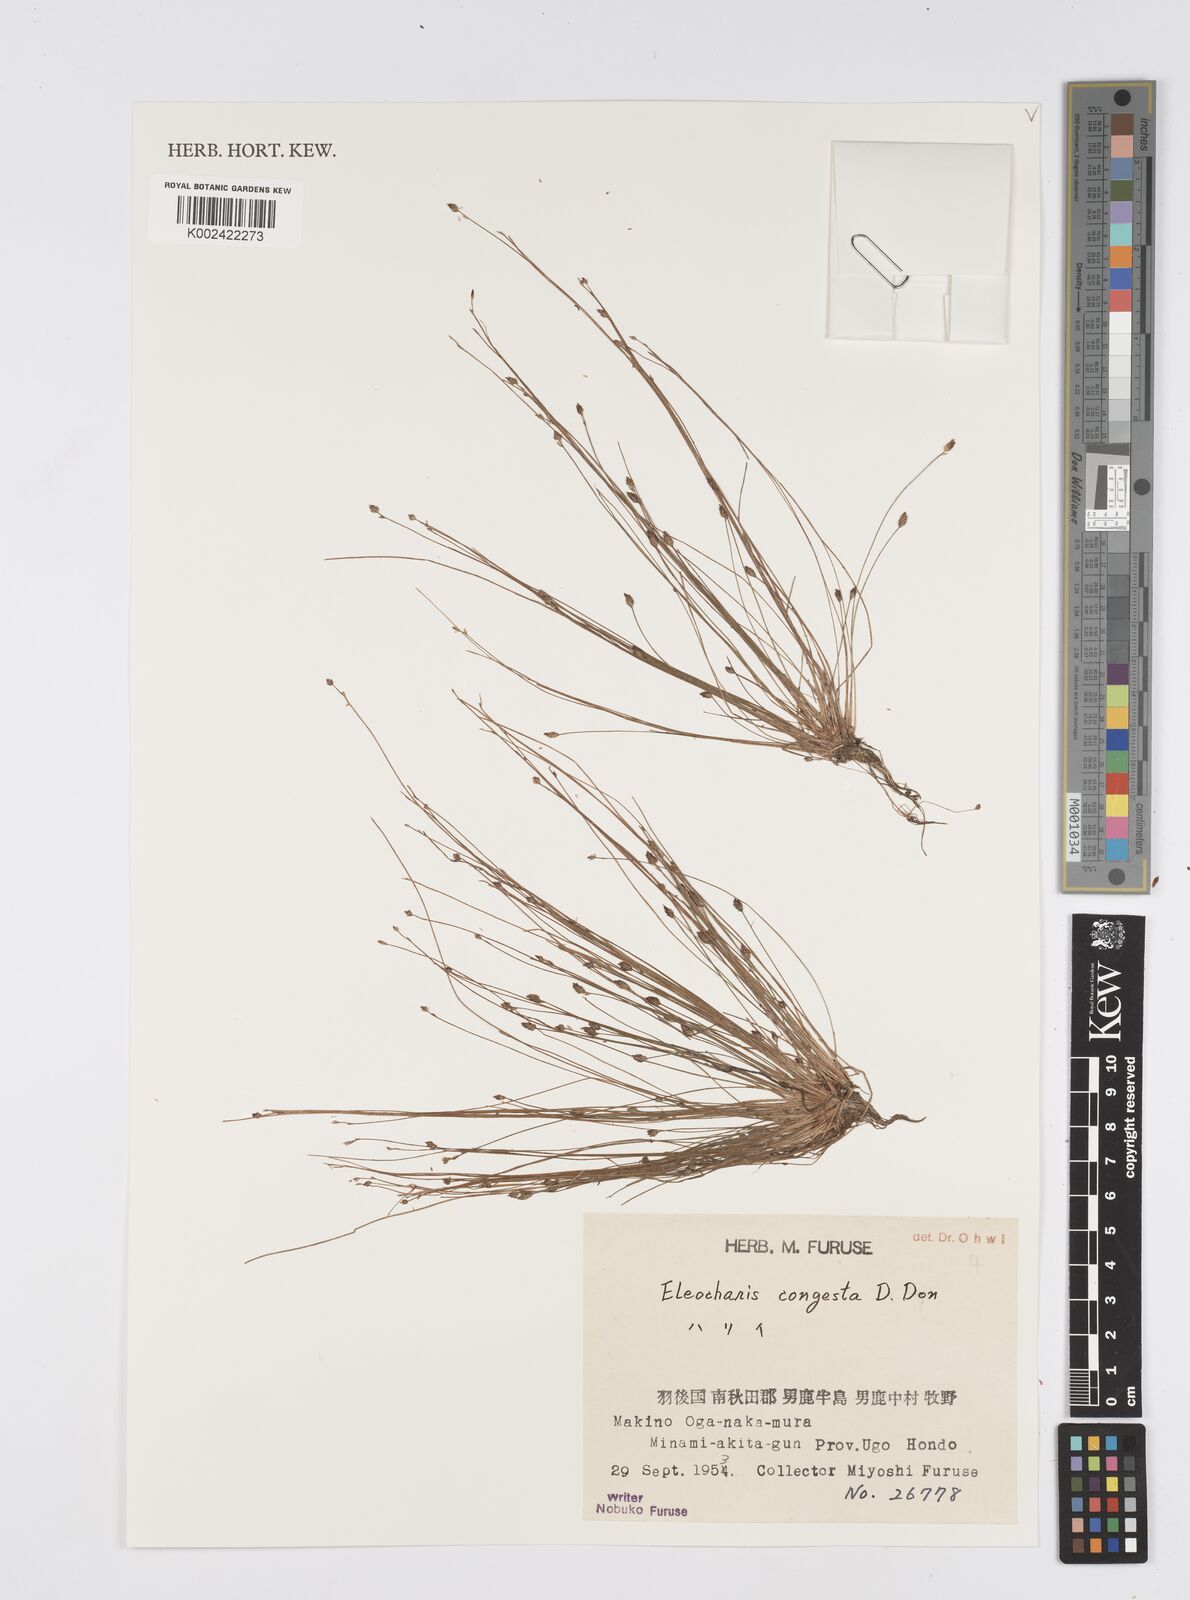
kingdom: Plantae
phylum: Tracheophyta
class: Liliopsida
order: Poales
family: Cyperaceae
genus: Eleocharis
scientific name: Eleocharis congesta
